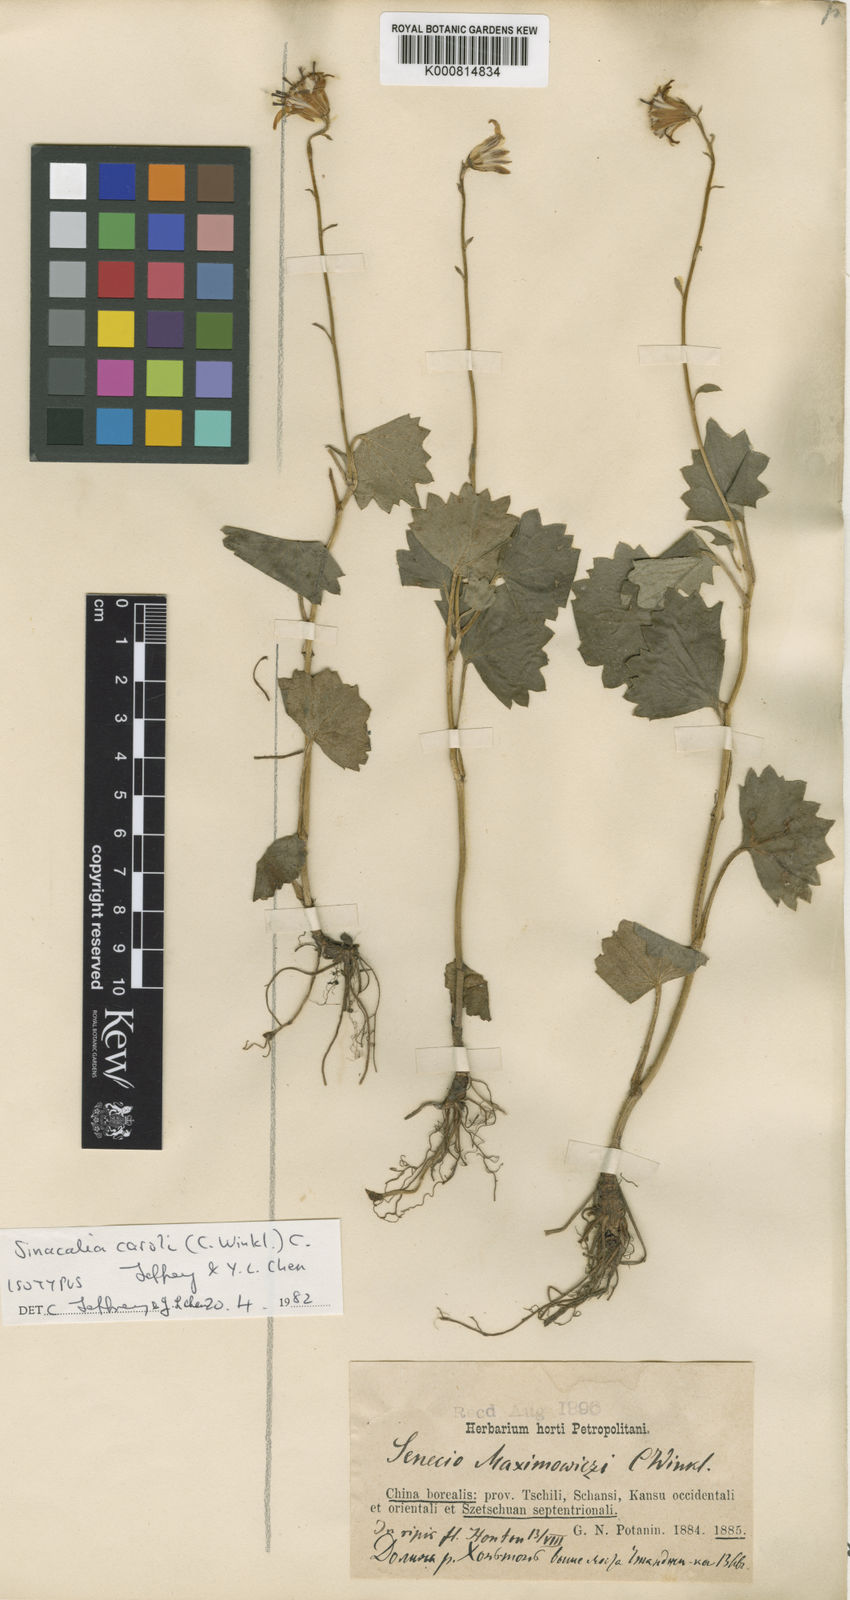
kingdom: Plantae
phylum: Tracheophyta
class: Magnoliopsida
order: Asterales
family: Asteraceae
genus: Parasenecio
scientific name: Parasenecio caroli
